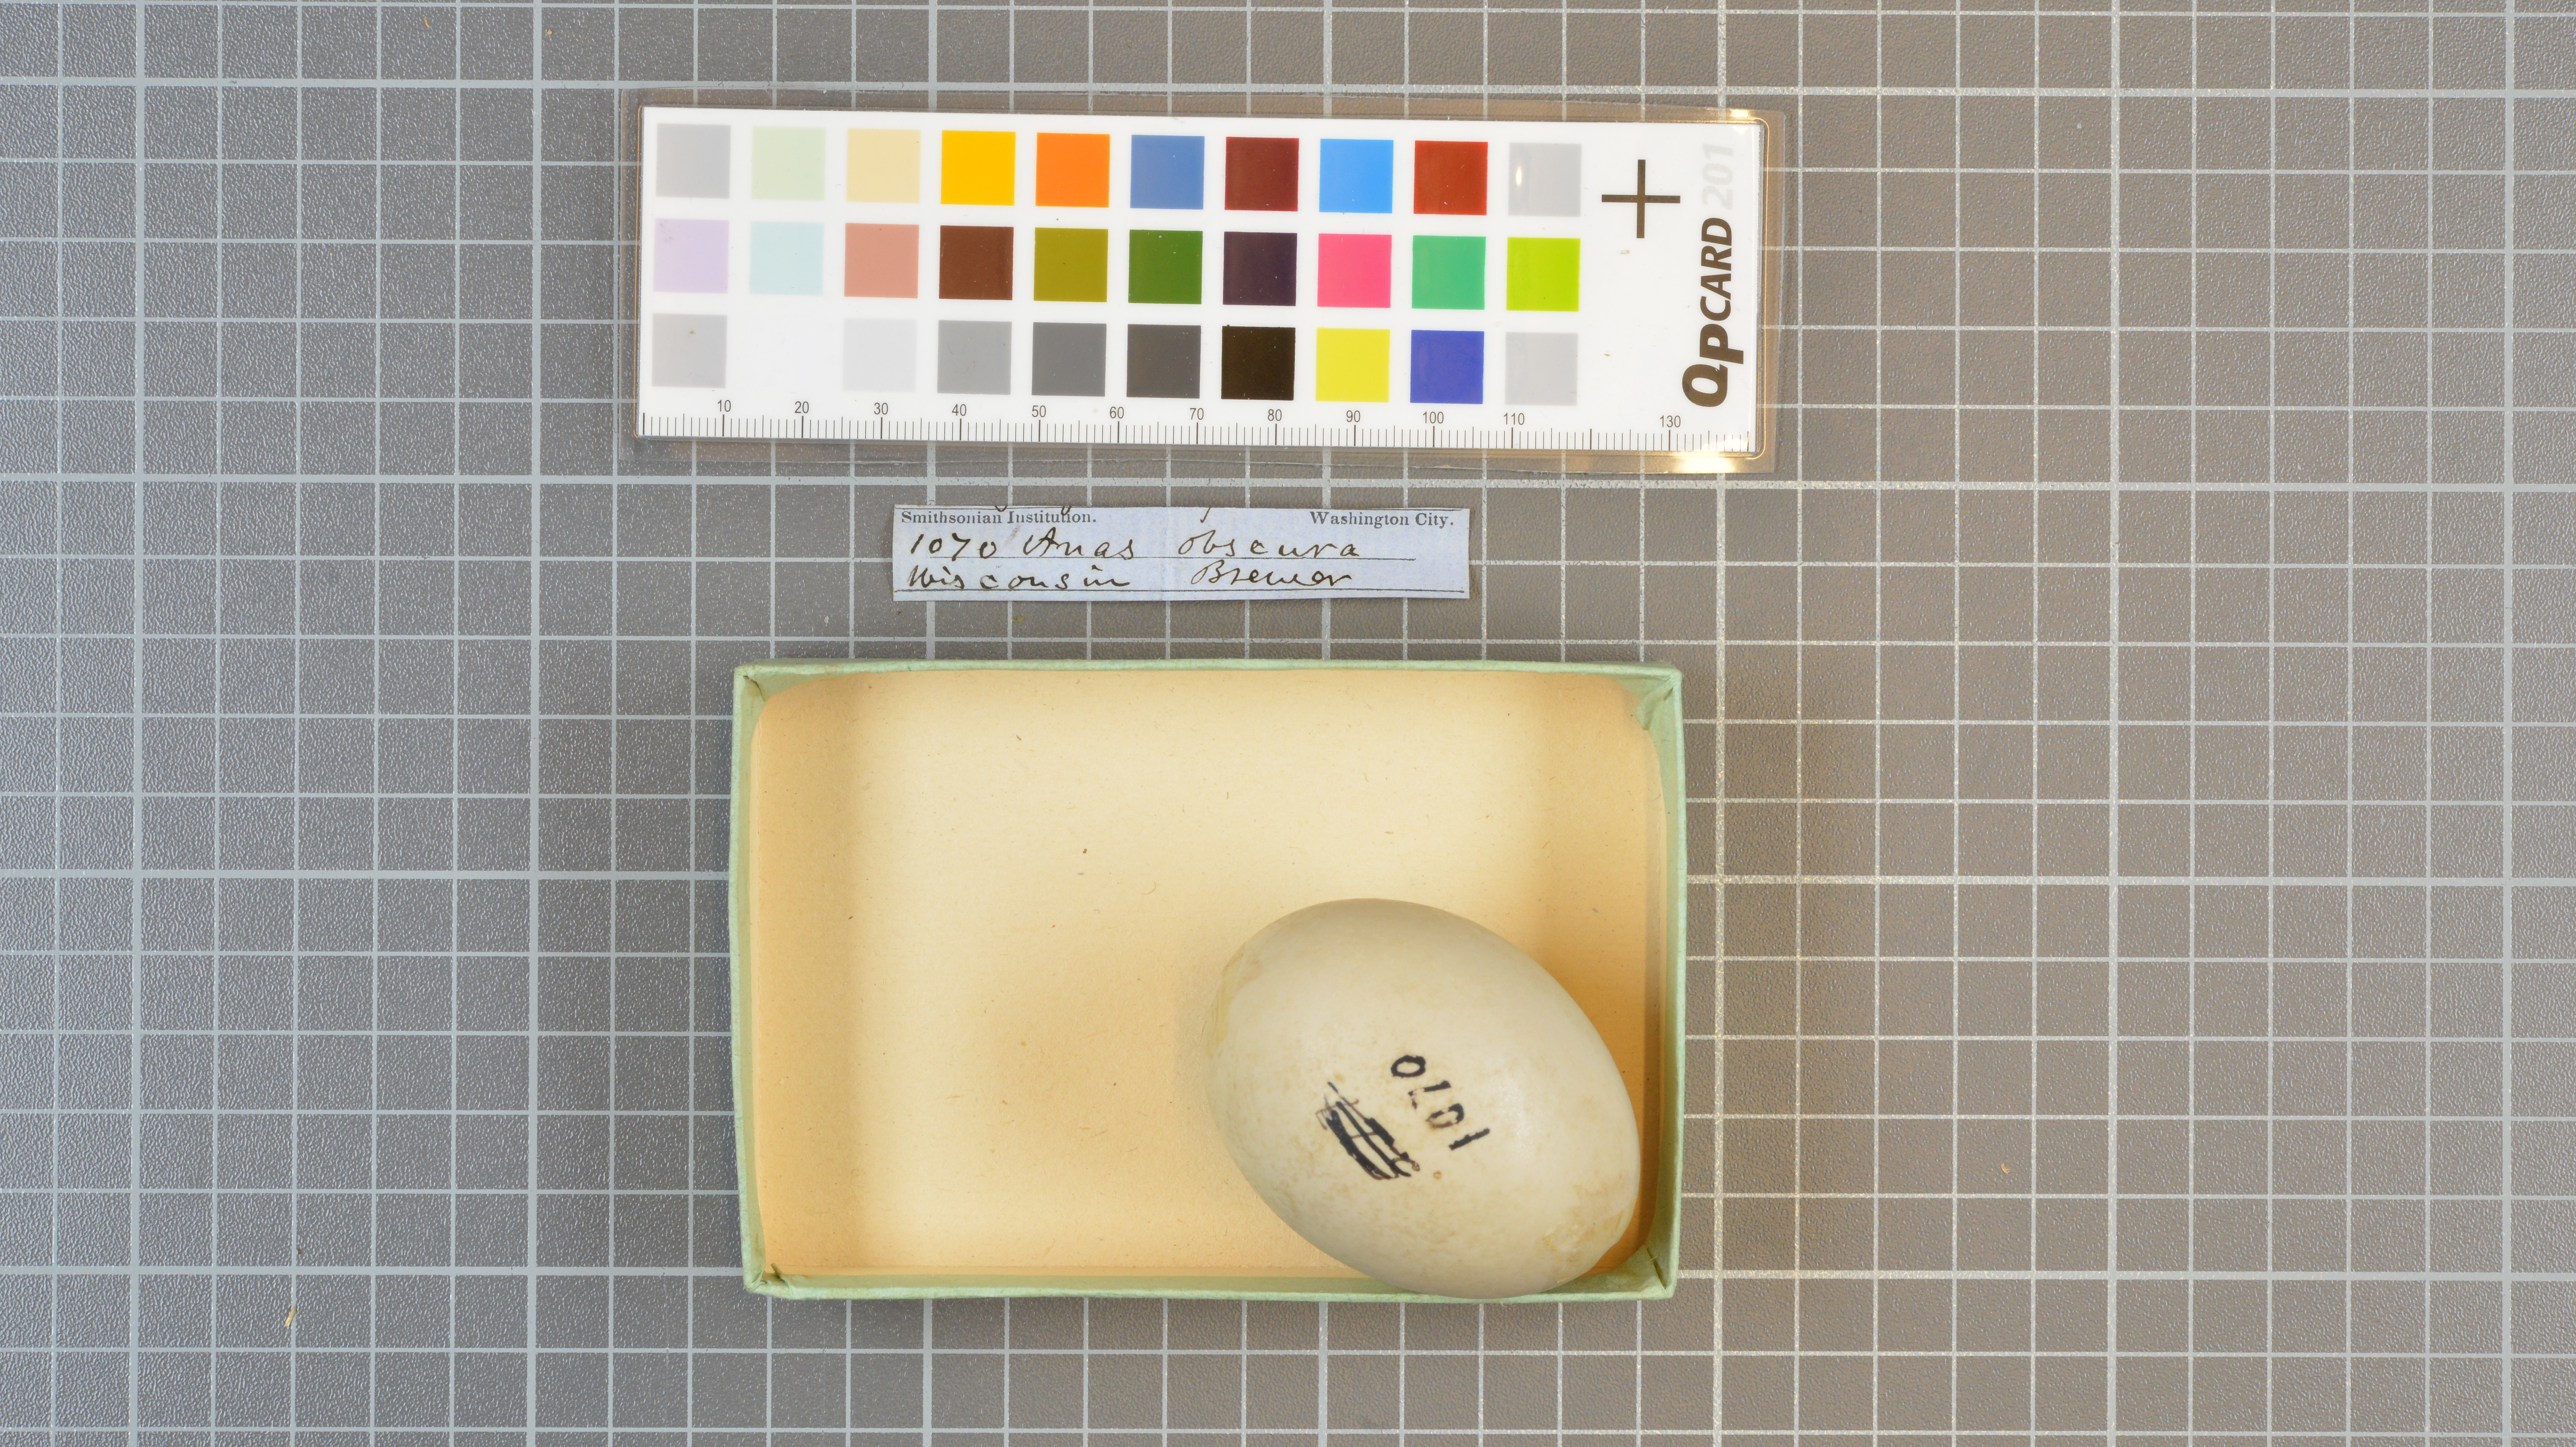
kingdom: Animalia
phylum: Chordata
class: Aves
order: Anseriformes
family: Anatidae
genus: Anas
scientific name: Anas rubripes
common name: American black duck
